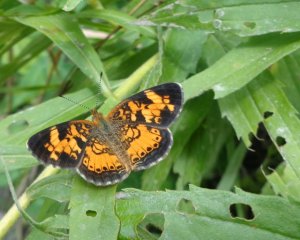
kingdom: Animalia
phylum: Arthropoda
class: Insecta
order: Lepidoptera
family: Nymphalidae
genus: Phyciodes
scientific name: Phyciodes tharos
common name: Pearl Crescent
